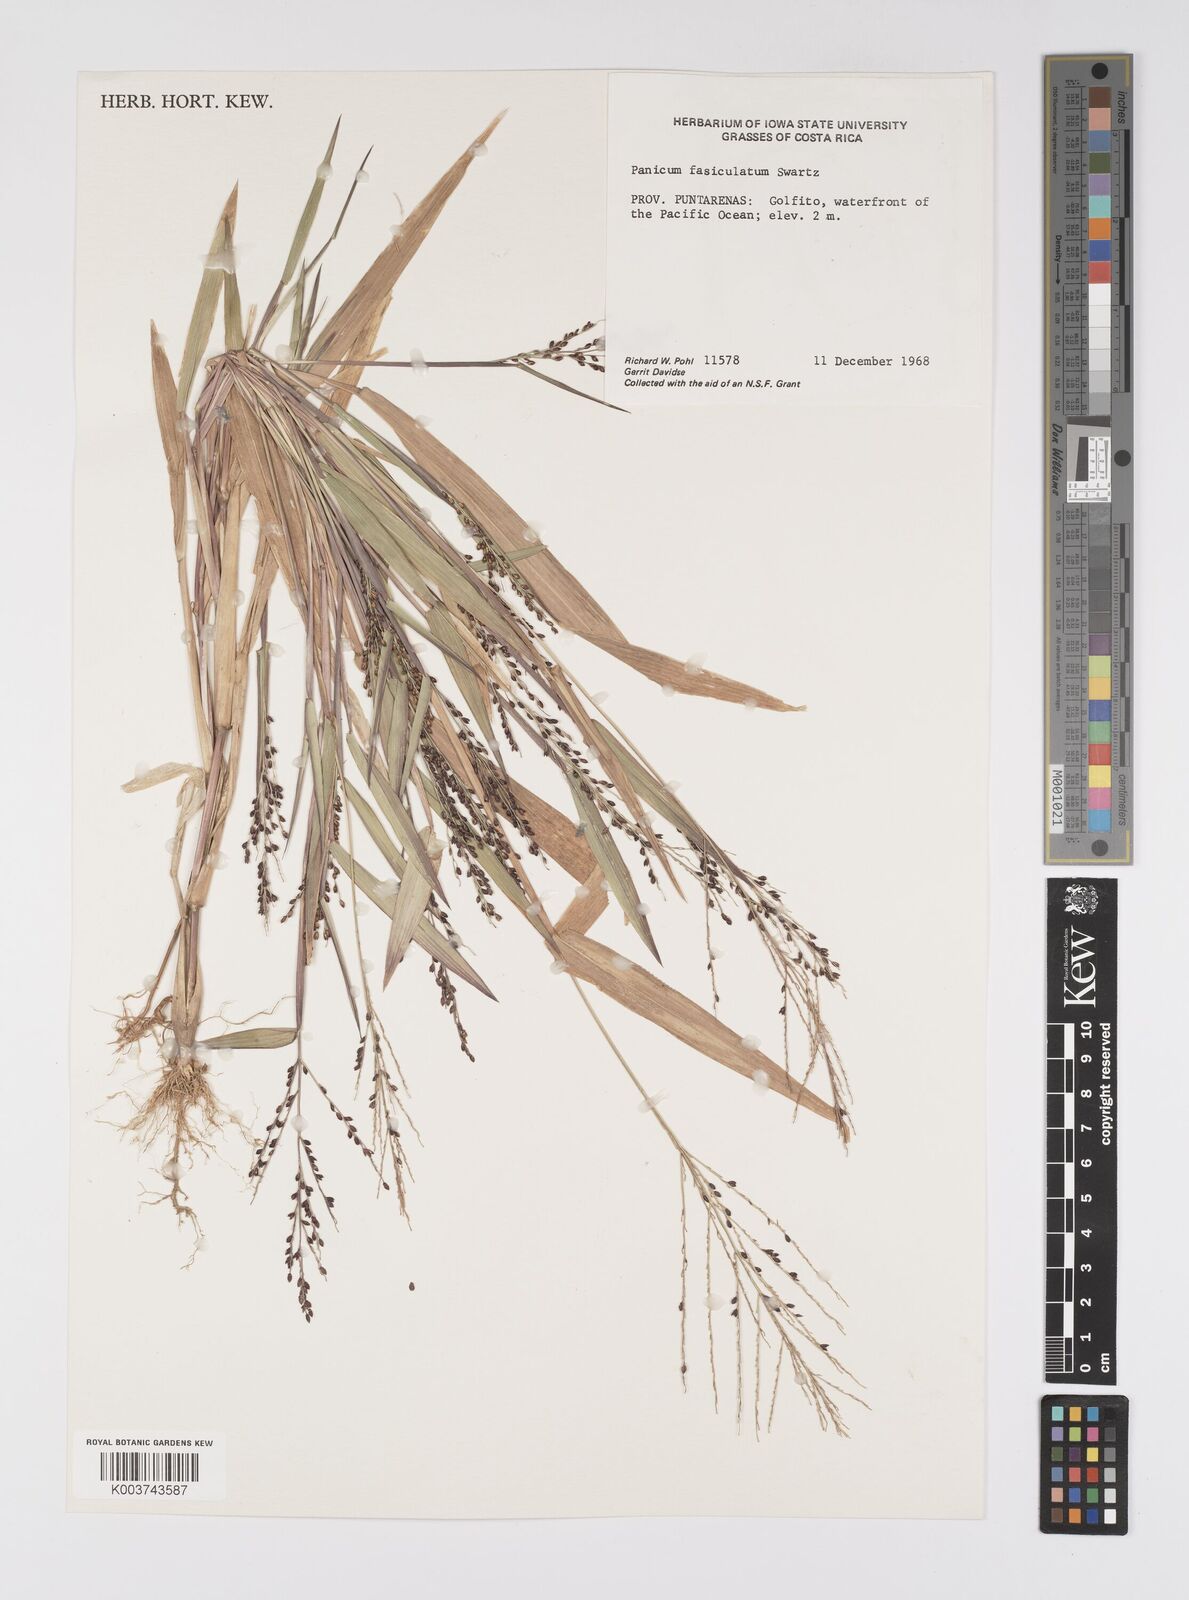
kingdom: Plantae
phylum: Tracheophyta
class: Liliopsida
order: Poales
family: Poaceae
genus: Urochloa
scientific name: Urochloa fusca
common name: Browntop signal grass
